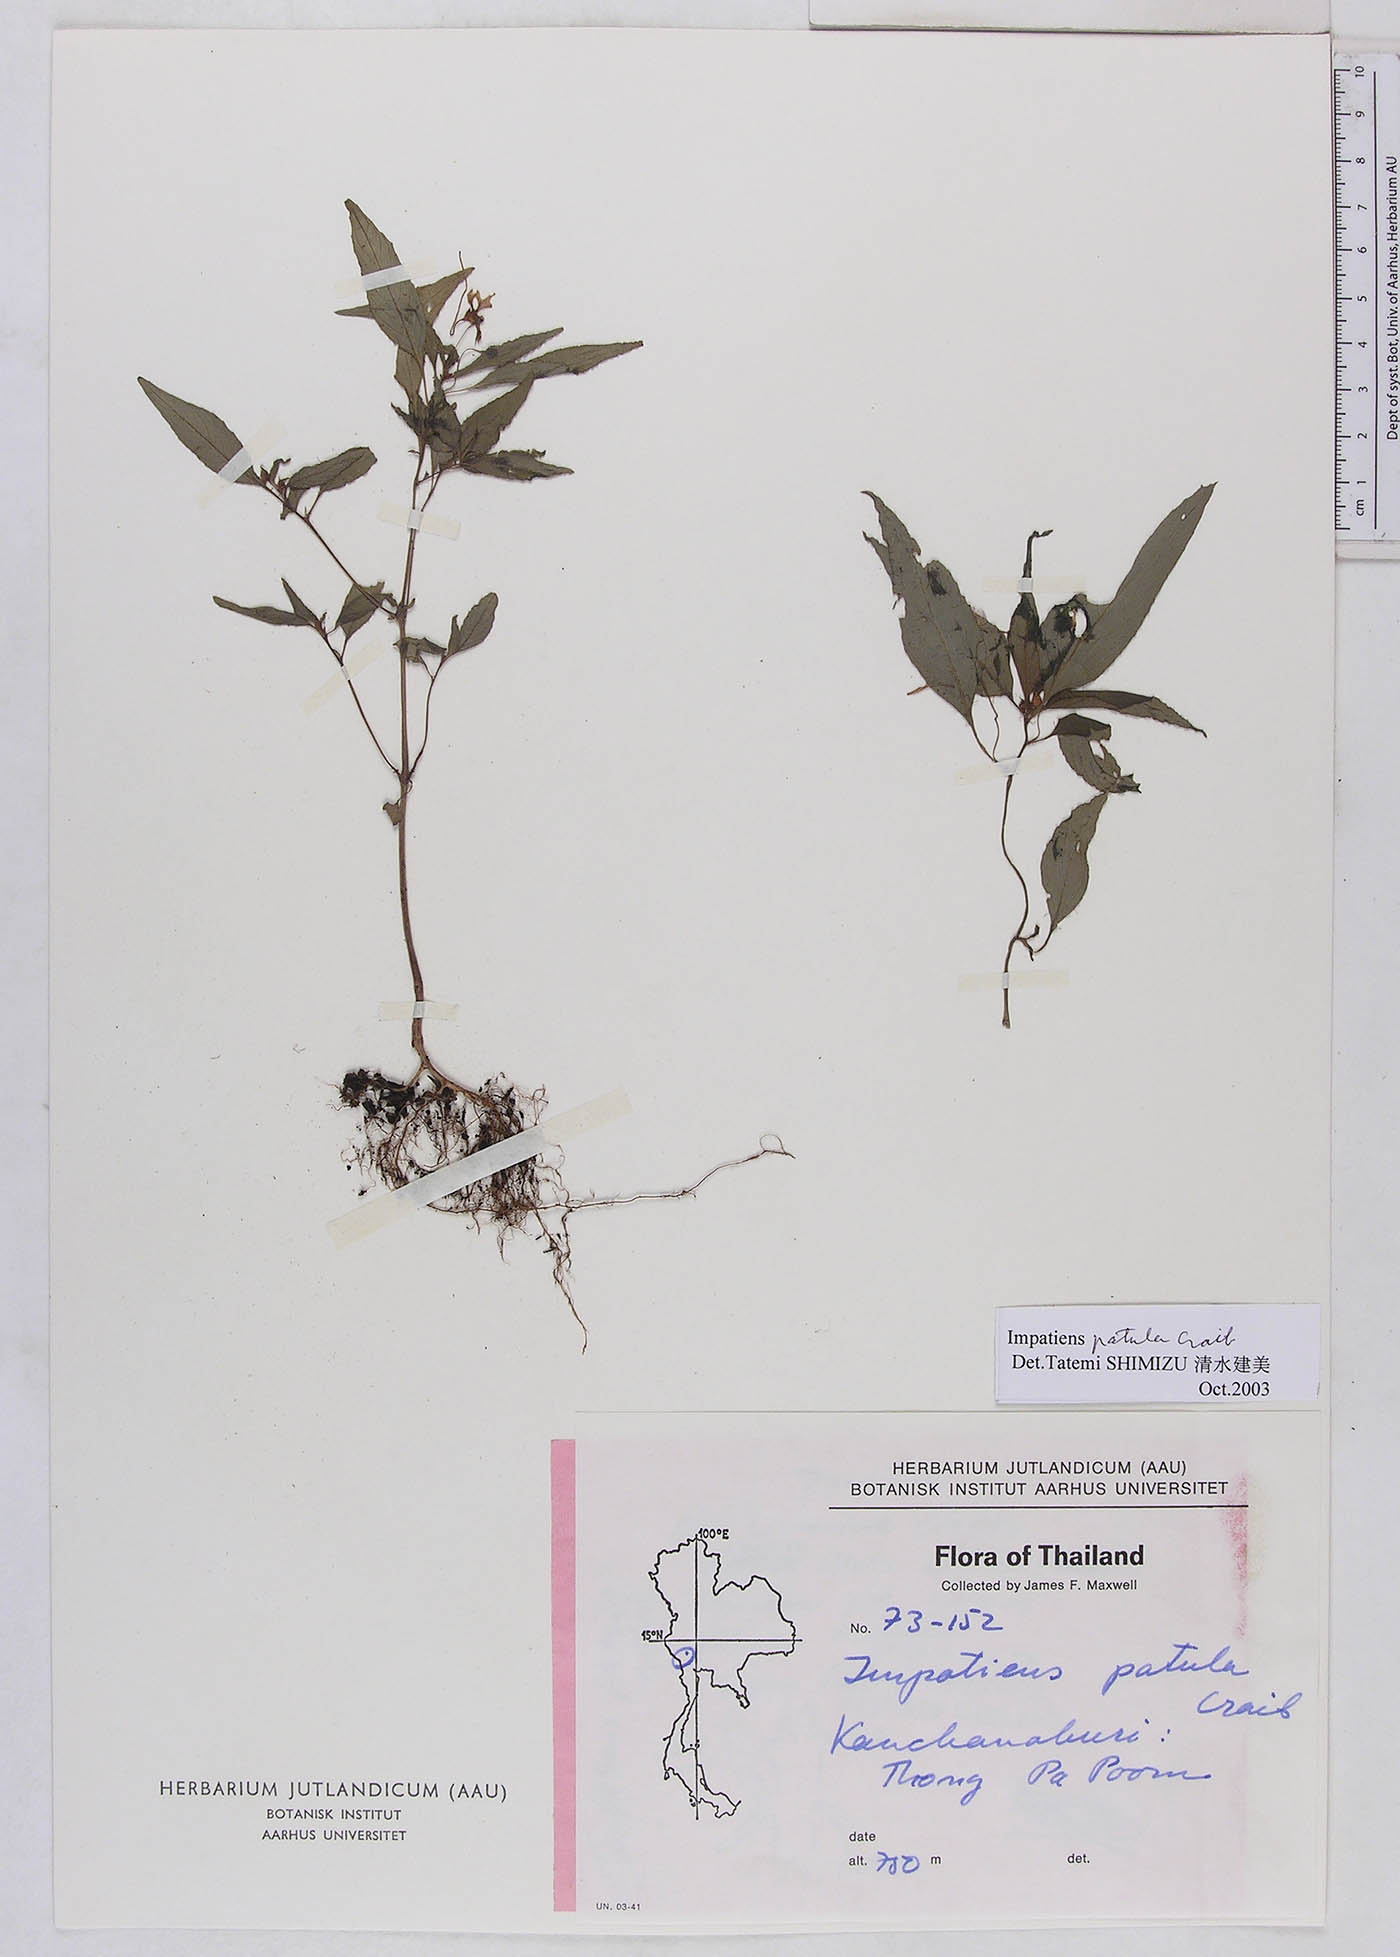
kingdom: Plantae
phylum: Tracheophyta
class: Magnoliopsida
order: Ericales
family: Balsaminaceae
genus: Impatiens
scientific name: Impatiens patula
